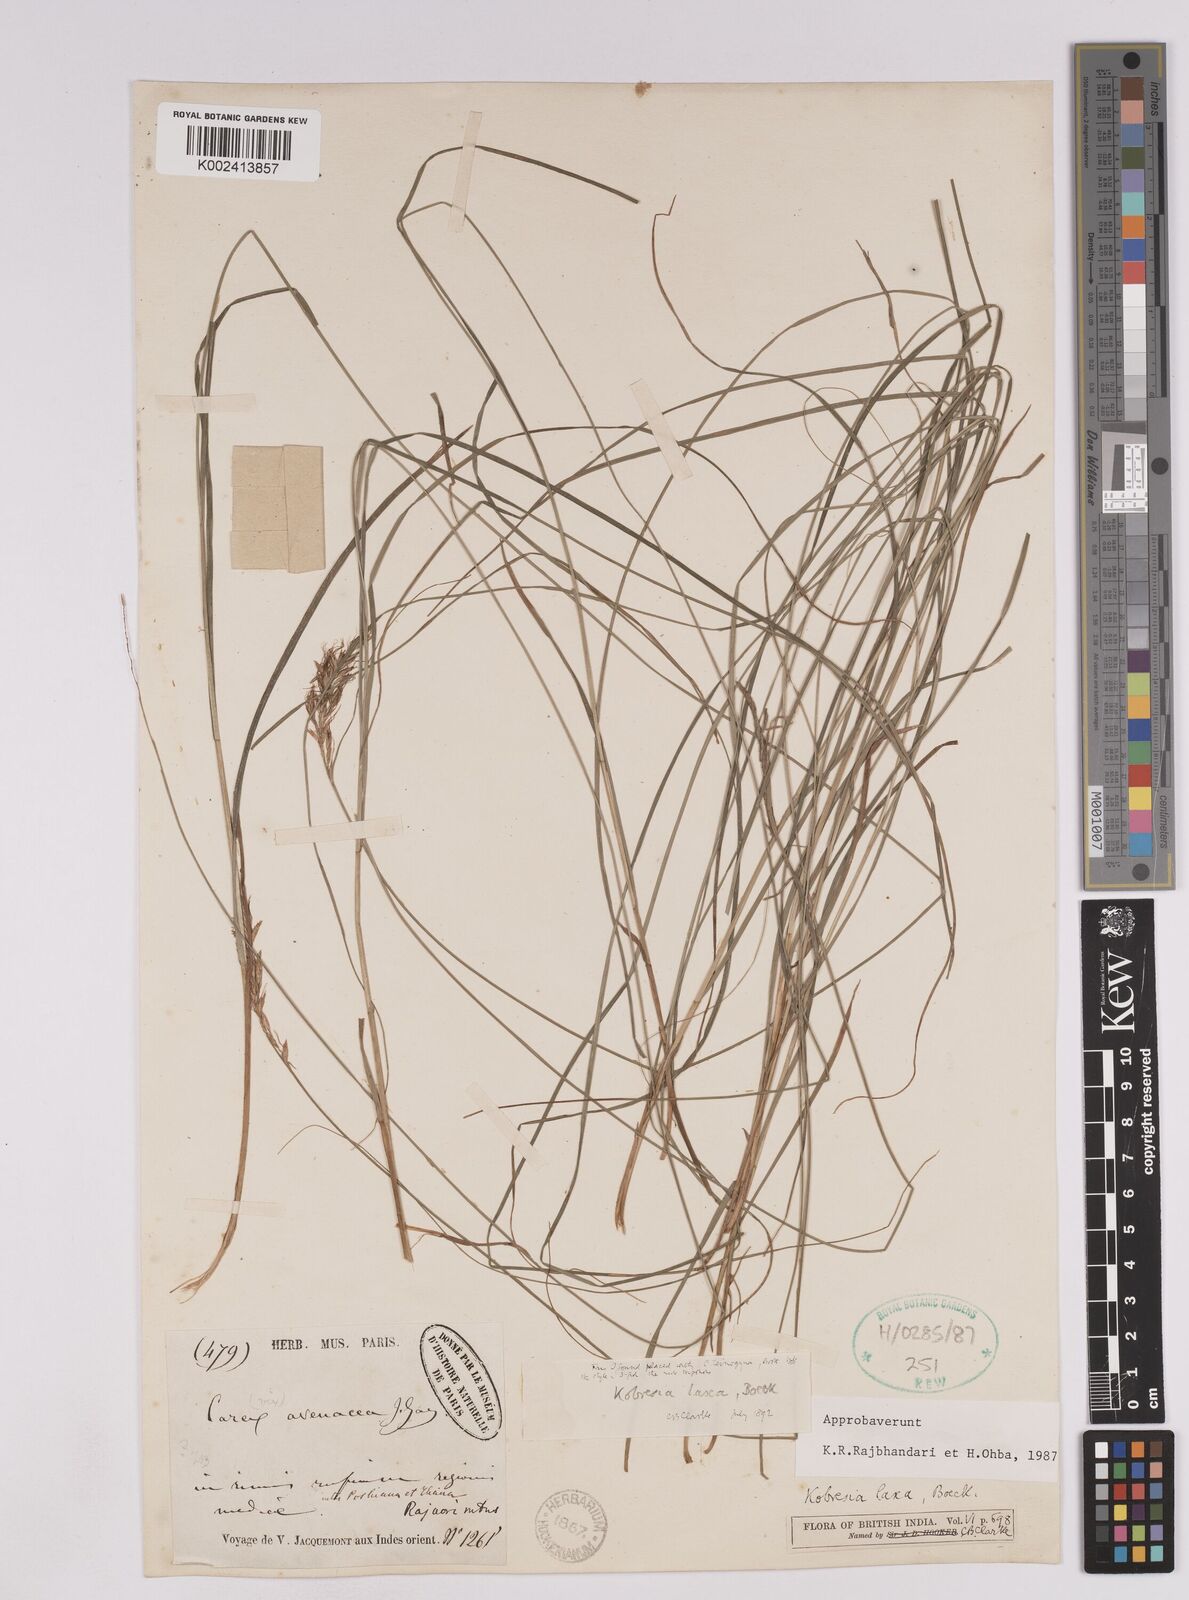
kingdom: Plantae
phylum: Tracheophyta
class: Liliopsida
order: Poales
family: Cyperaceae
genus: Carex
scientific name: Carex pseudolaxa
